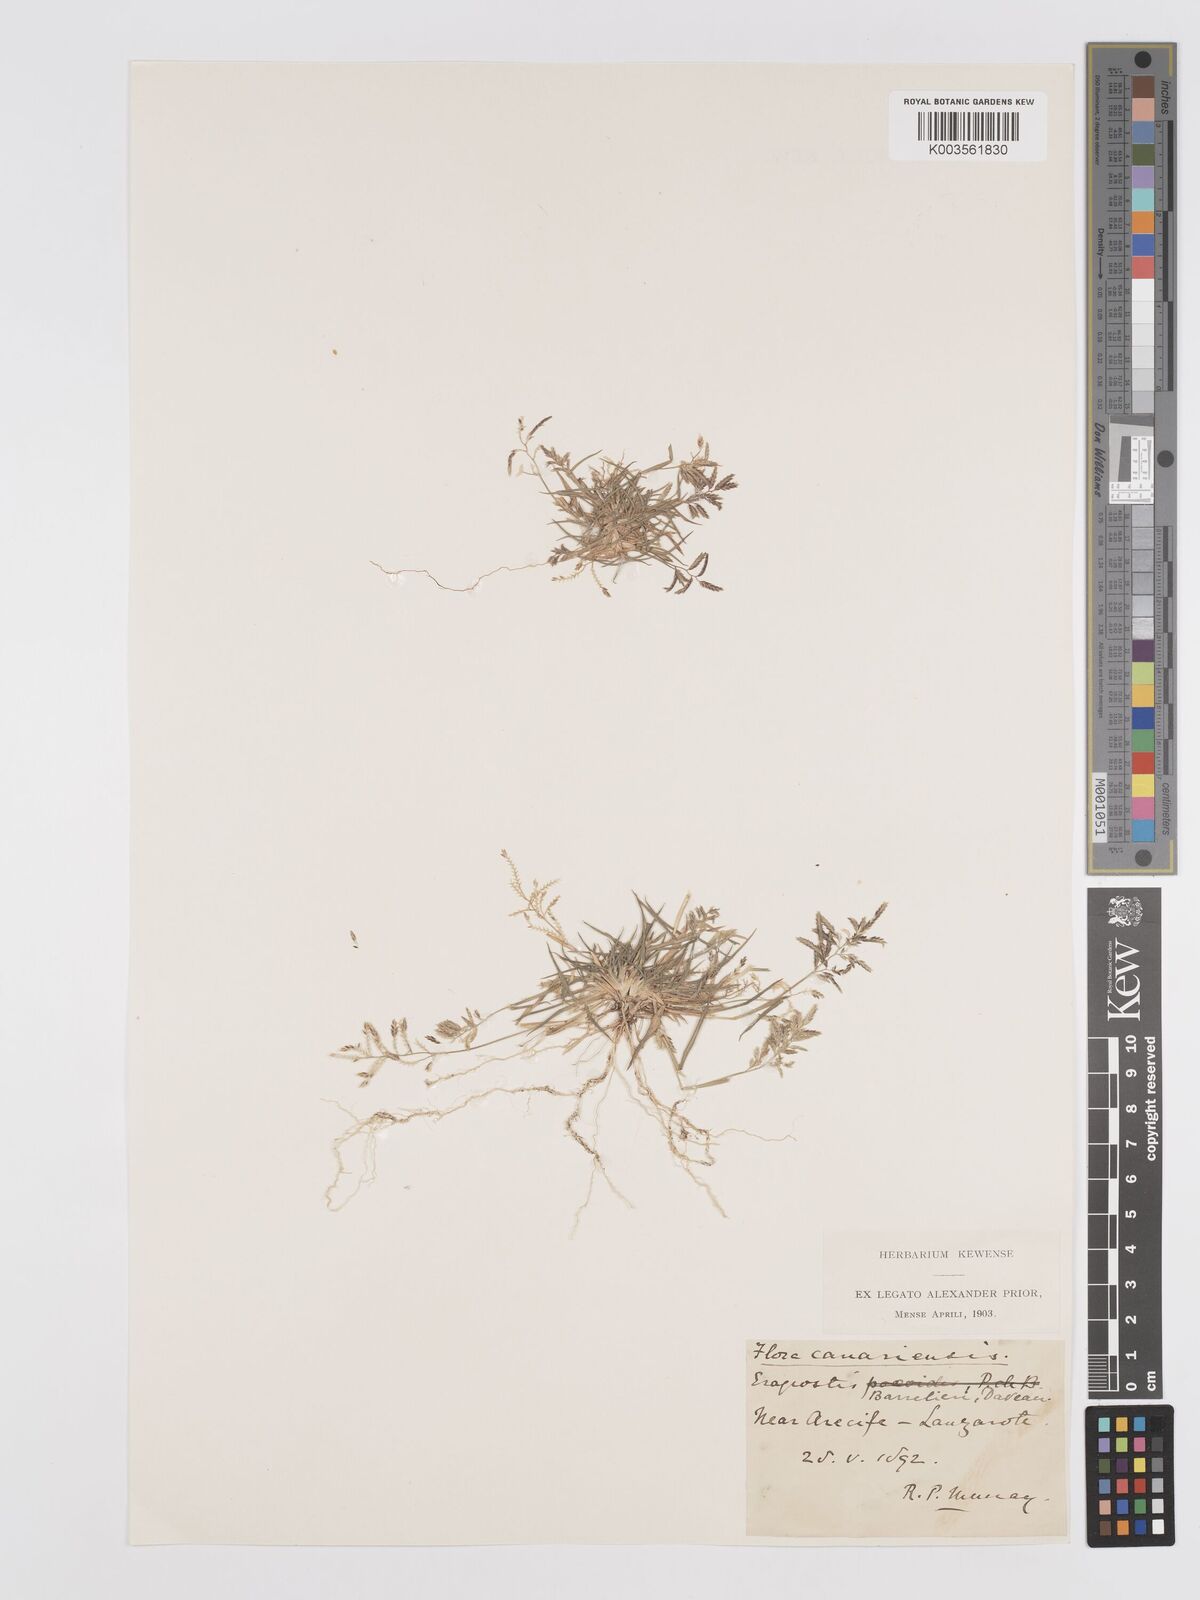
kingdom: Plantae
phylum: Tracheophyta
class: Liliopsida
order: Poales
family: Poaceae
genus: Eragrostis
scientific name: Eragrostis barrelieri
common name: Mediterranean lovegrass
